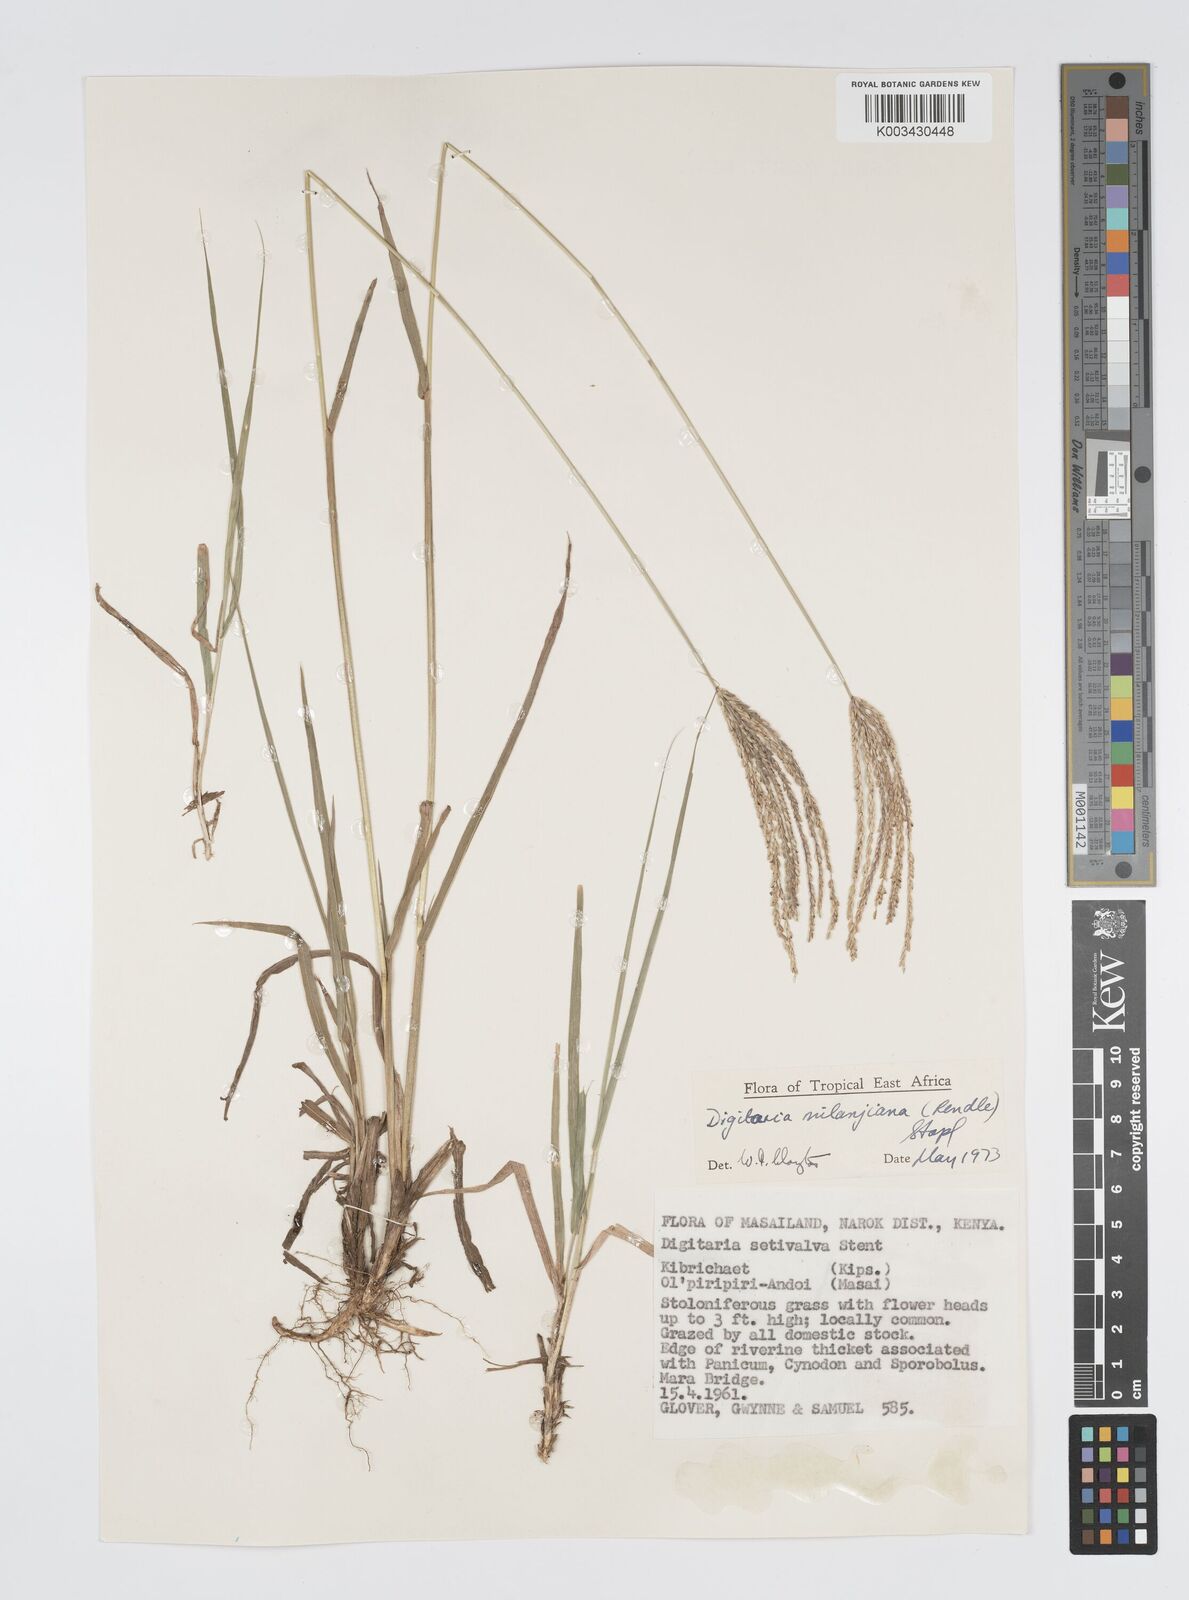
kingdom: Plantae
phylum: Tracheophyta
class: Liliopsida
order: Poales
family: Poaceae
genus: Digitaria
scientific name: Digitaria milanjiana
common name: Madagascar crabgrass
